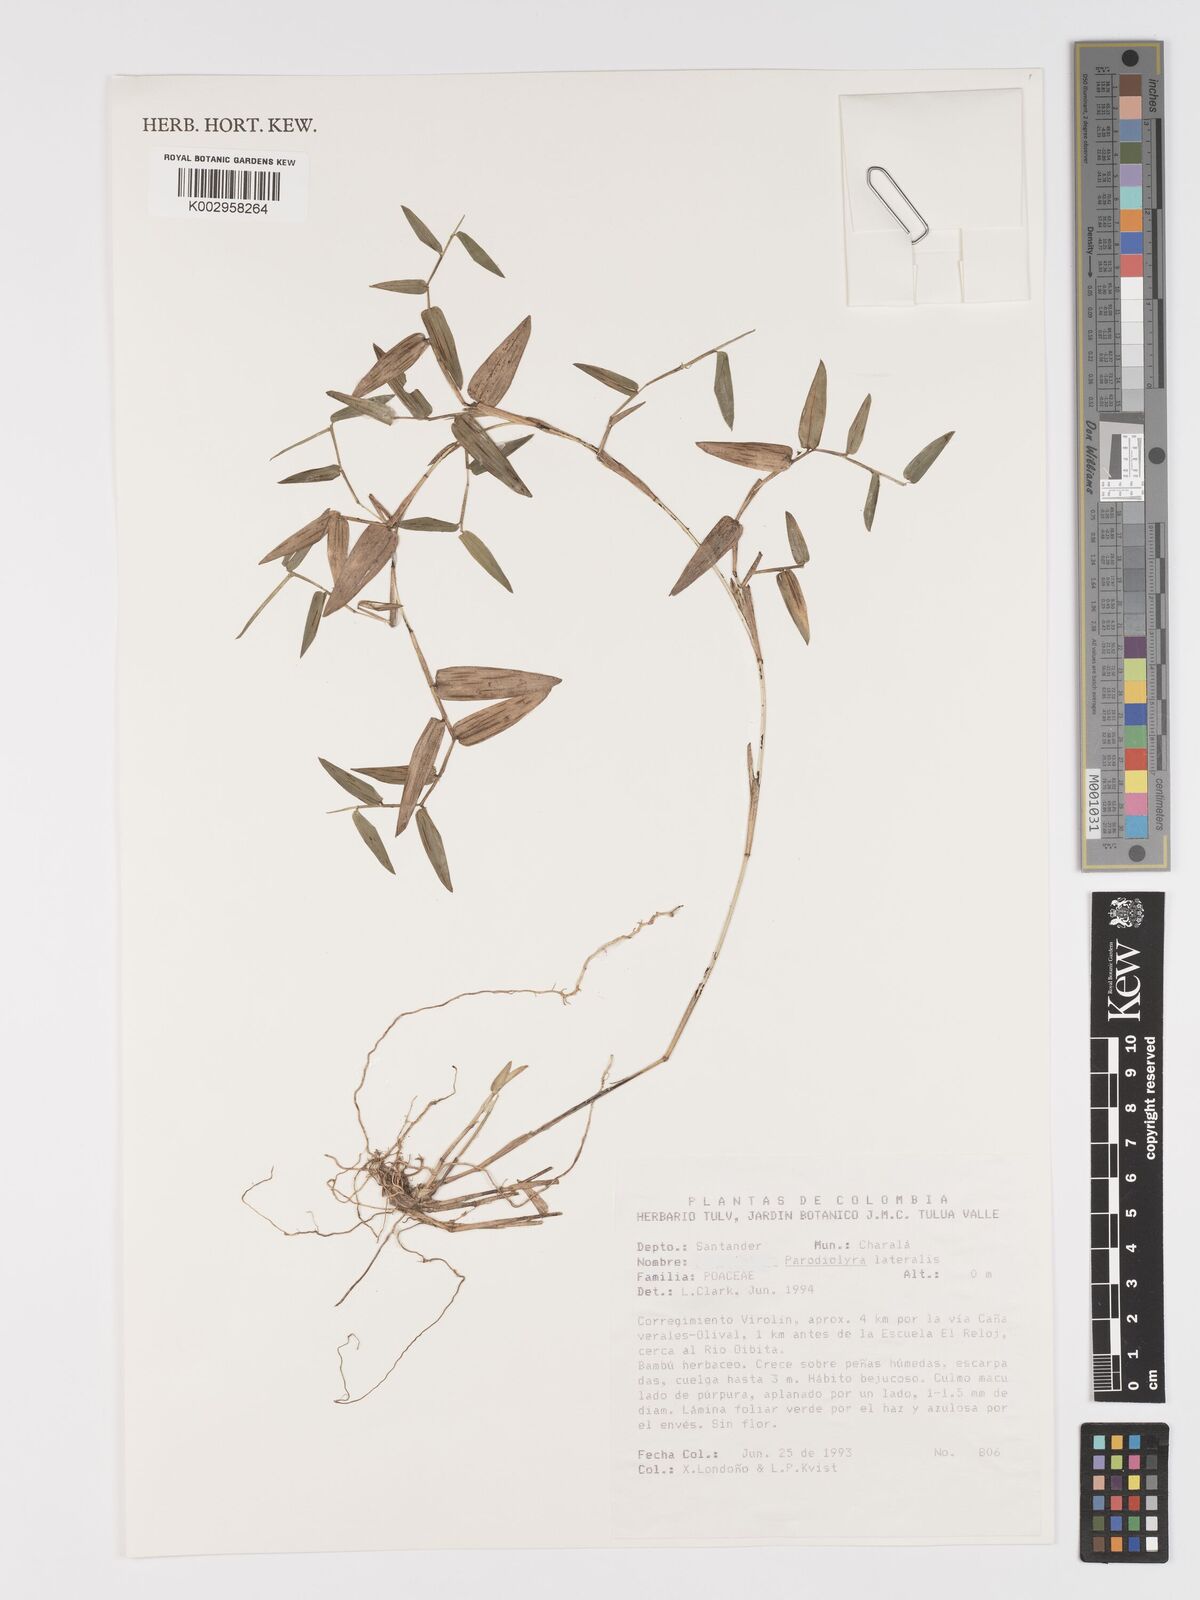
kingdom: Plantae
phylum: Tracheophyta
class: Liliopsida
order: Poales
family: Poaceae
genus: Parodiolyra
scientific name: Parodiolyra lateralis
